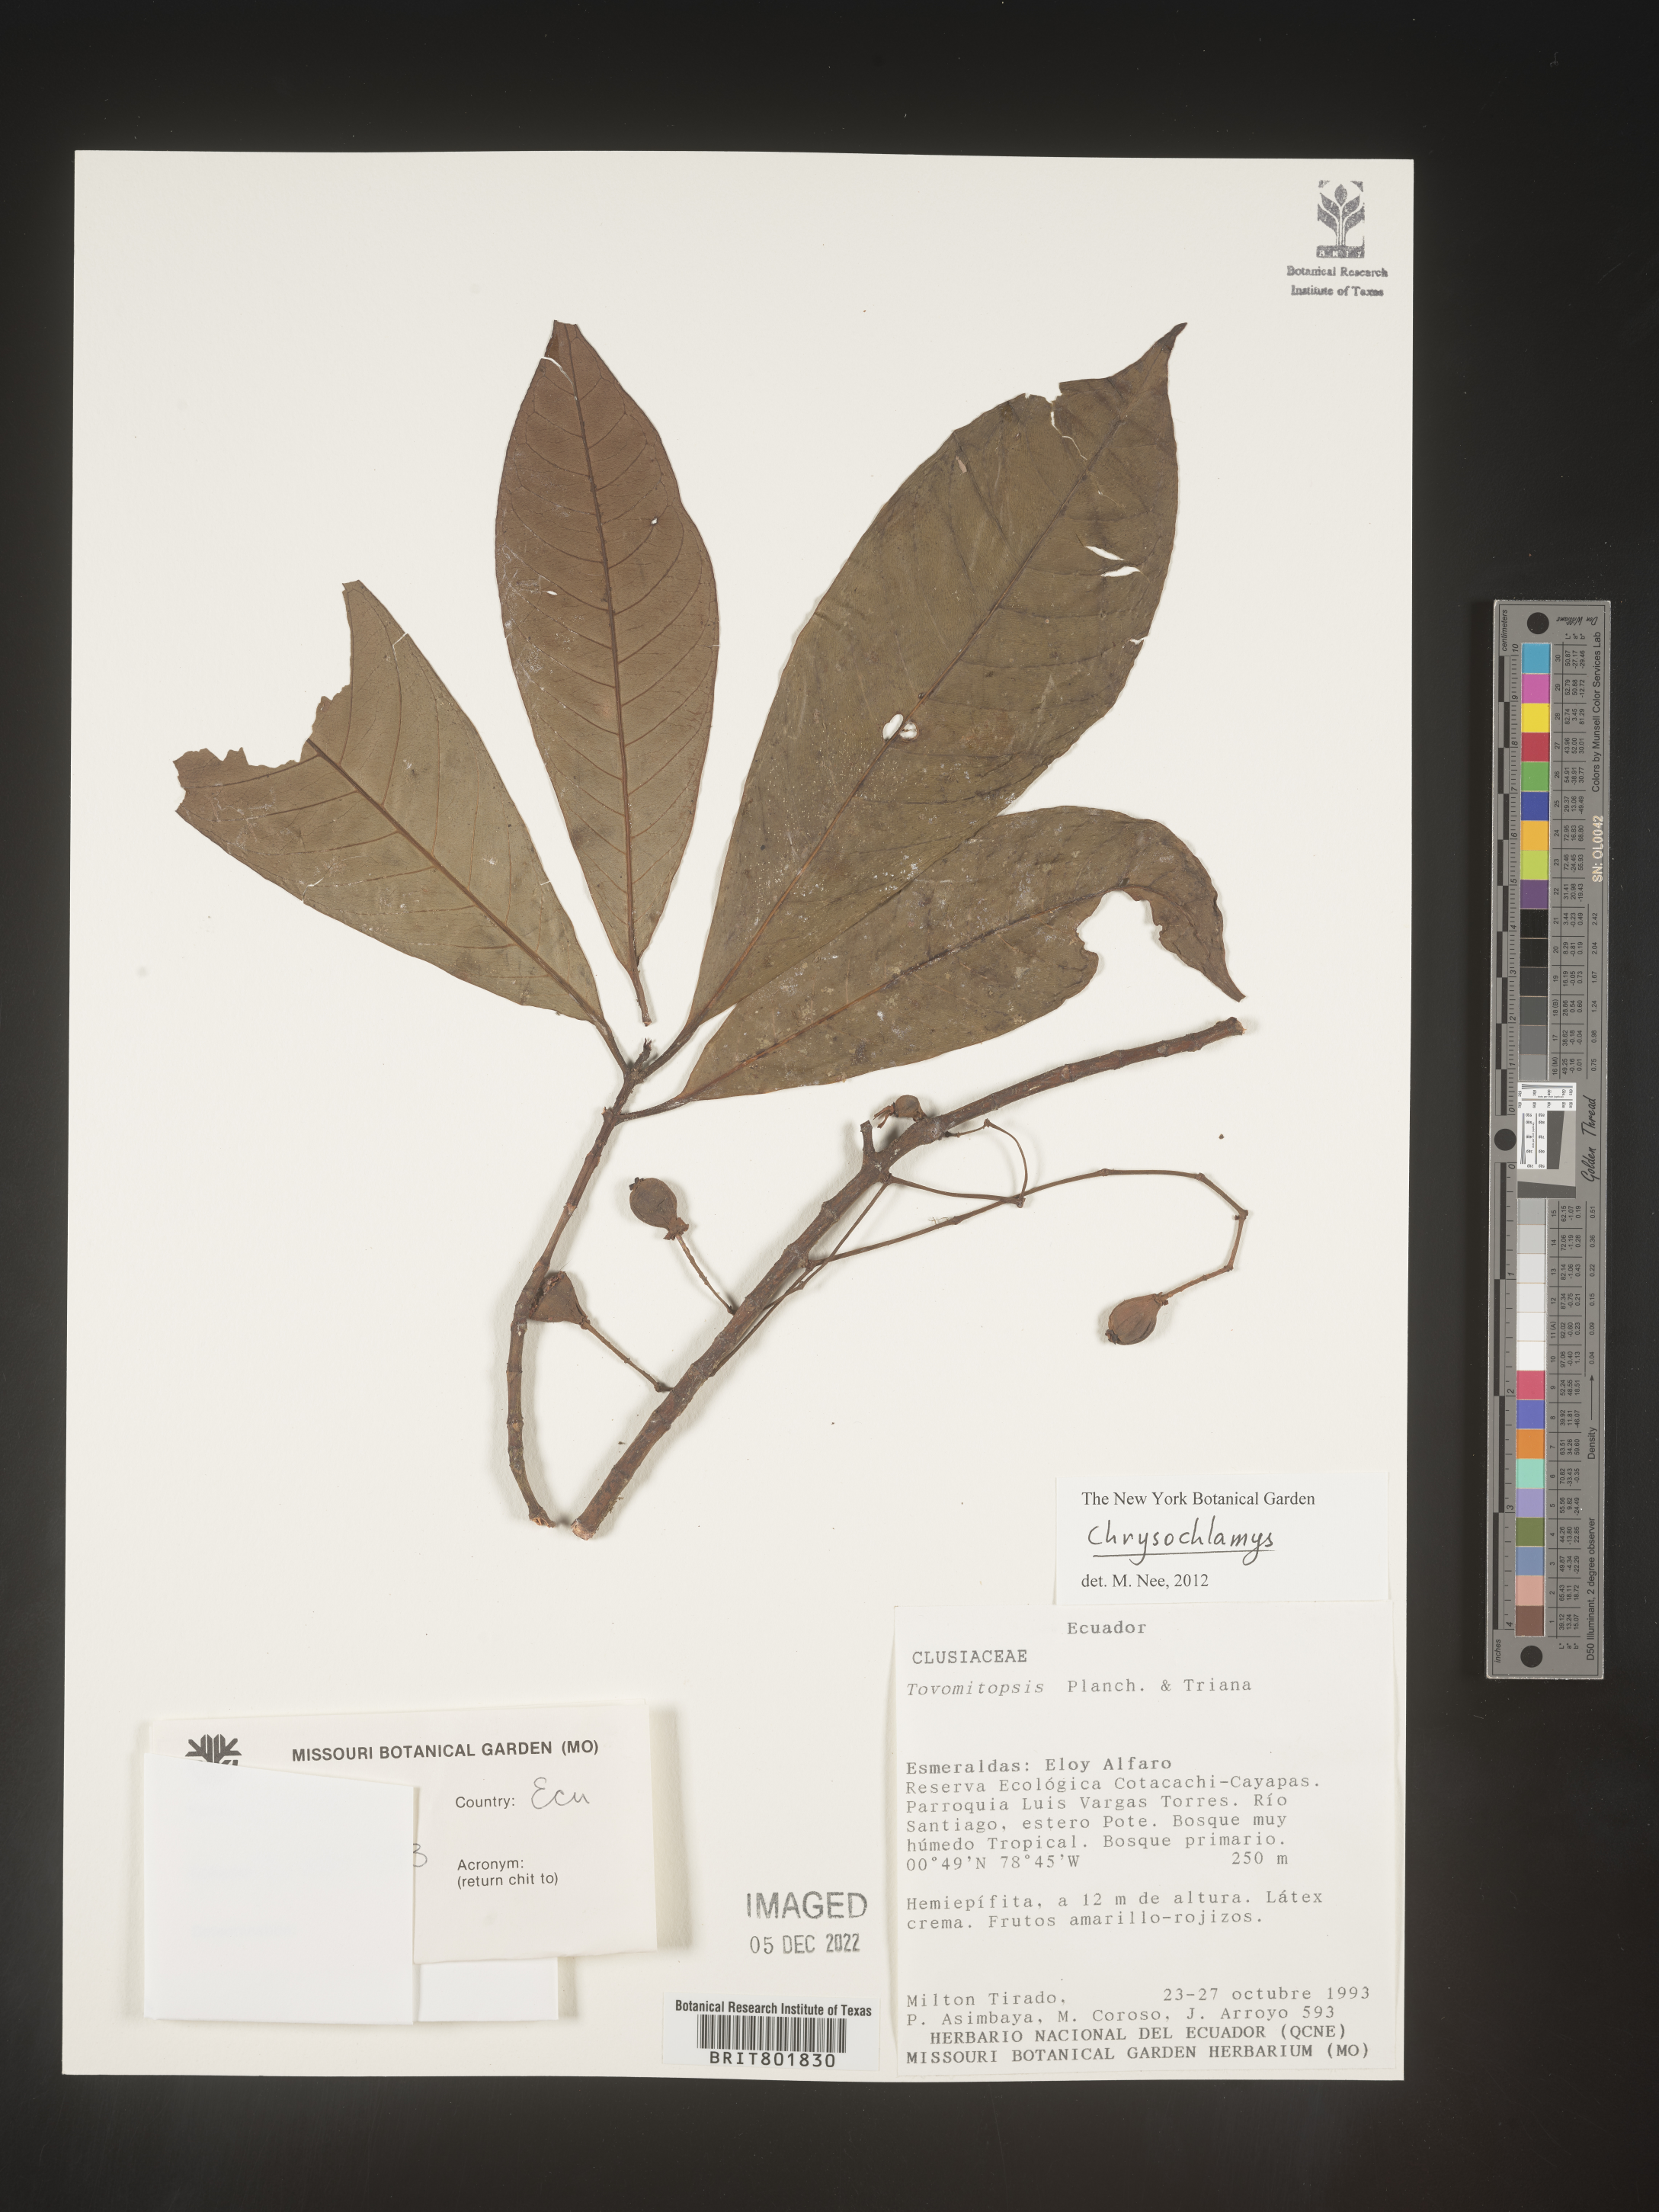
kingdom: Plantae
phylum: Tracheophyta
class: Magnoliopsida
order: Malpighiales
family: Clusiaceae
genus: Chrysochlamys
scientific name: Chrysochlamys
